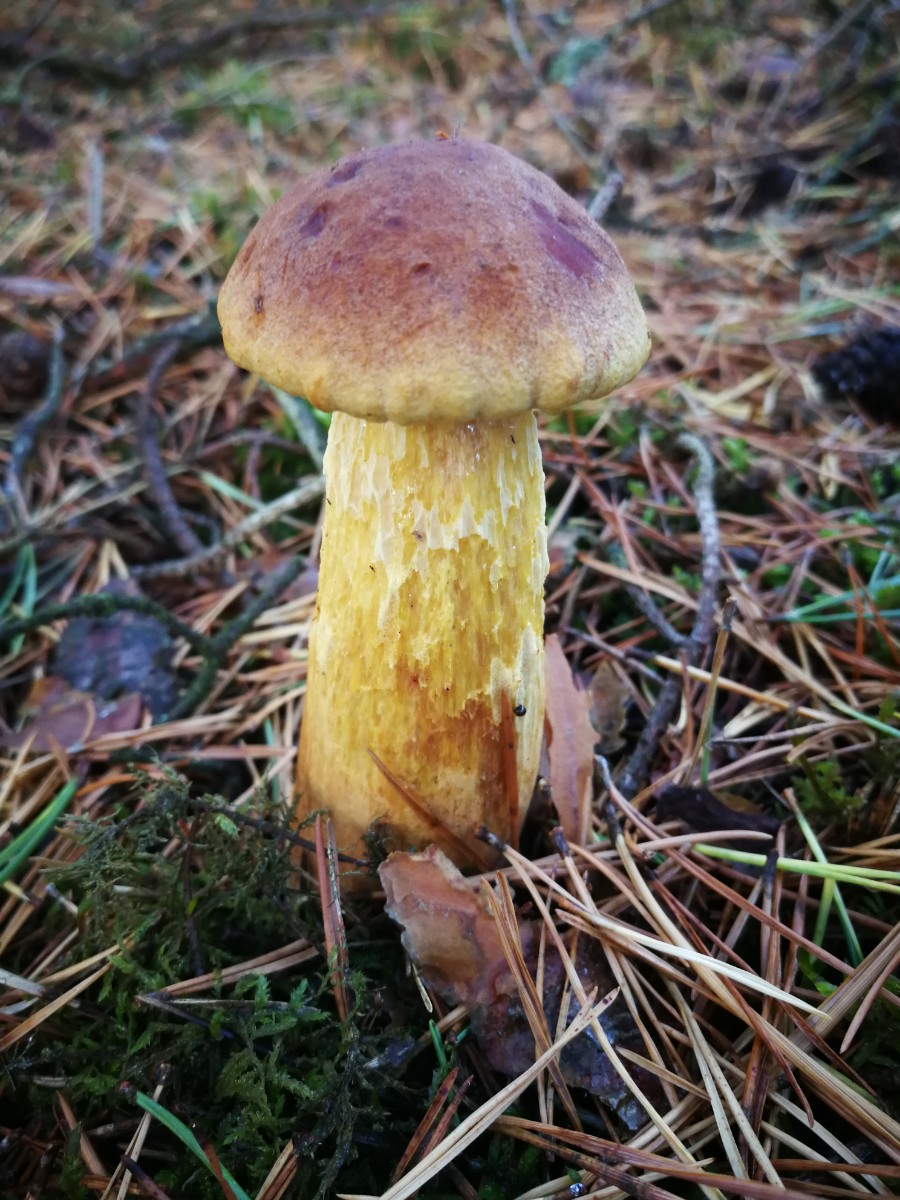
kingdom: Fungi
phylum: Basidiomycota
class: Agaricomycetes
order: Boletales
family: Boletaceae
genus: Aureoboletus
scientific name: Aureoboletus projectellus
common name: ribbestokket rørhat
